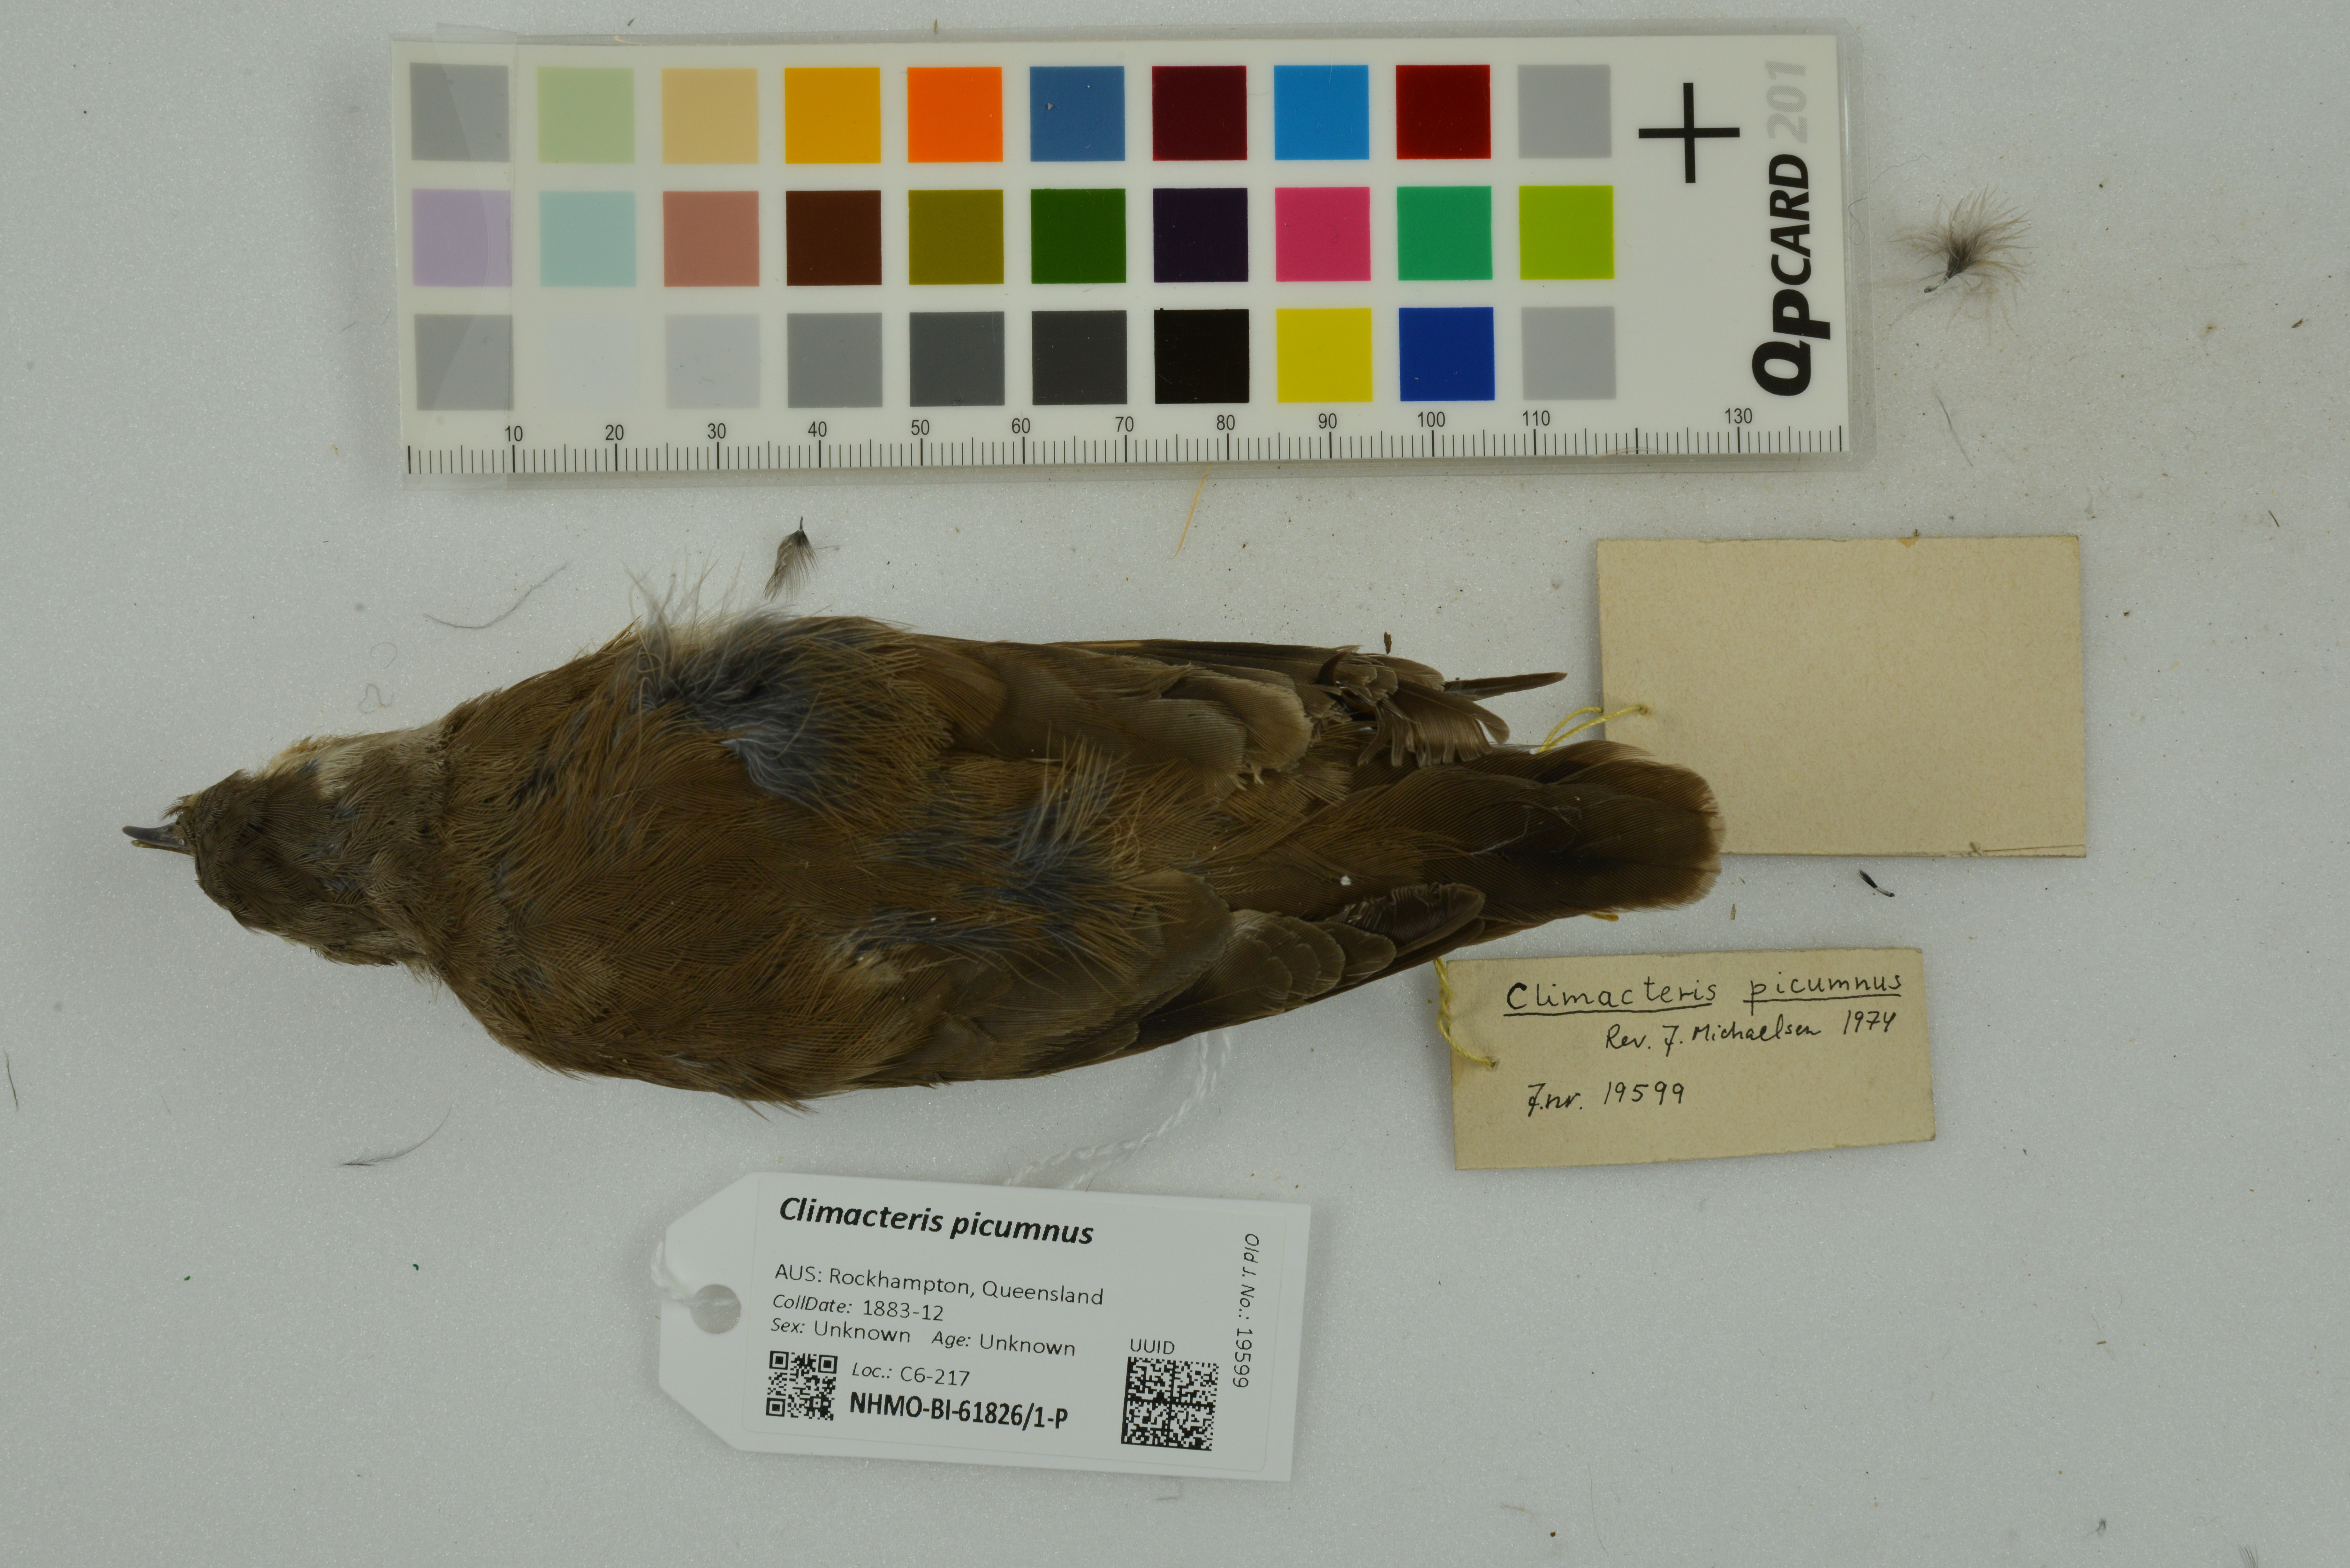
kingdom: Animalia
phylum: Chordata
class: Aves
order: Passeriformes
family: Climacteridae
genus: Climacteris
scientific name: Climacteris picumnus
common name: Brown treecreeper
